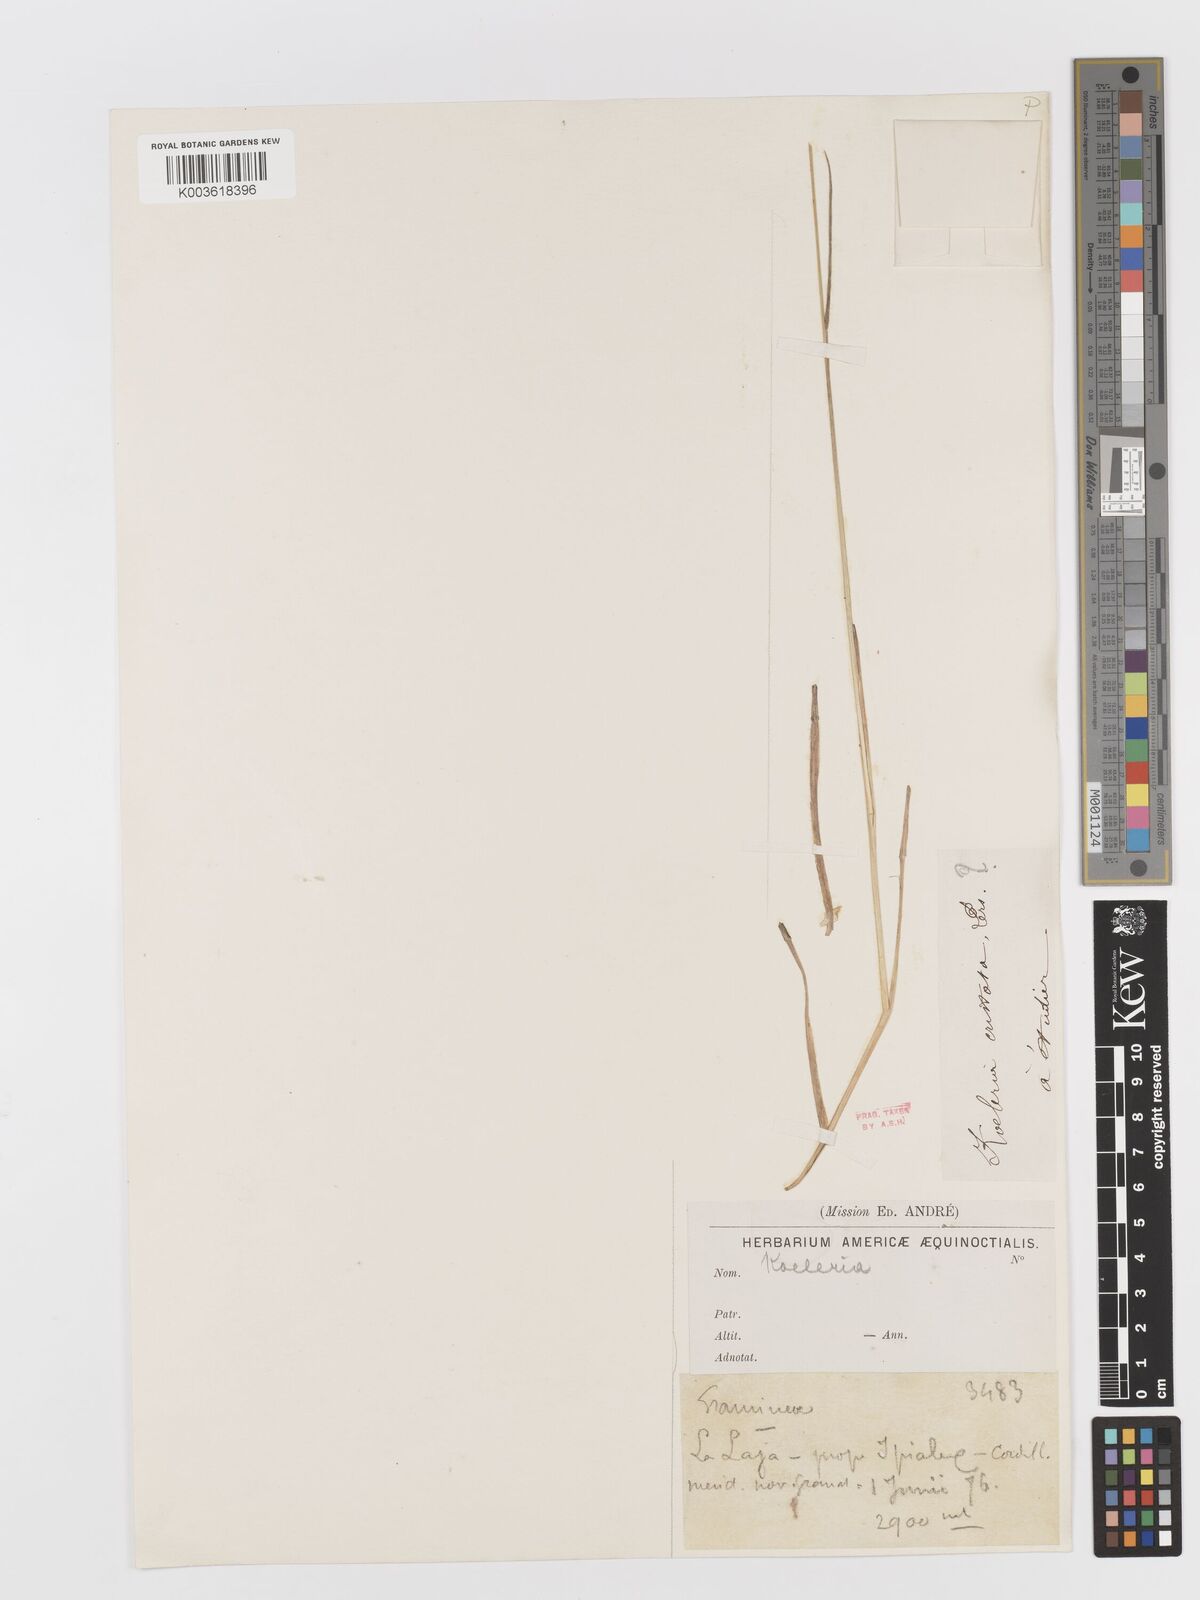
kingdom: Plantae
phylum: Tracheophyta
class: Liliopsida
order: Poales
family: Poaceae
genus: Koeleria
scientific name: Koeleria
